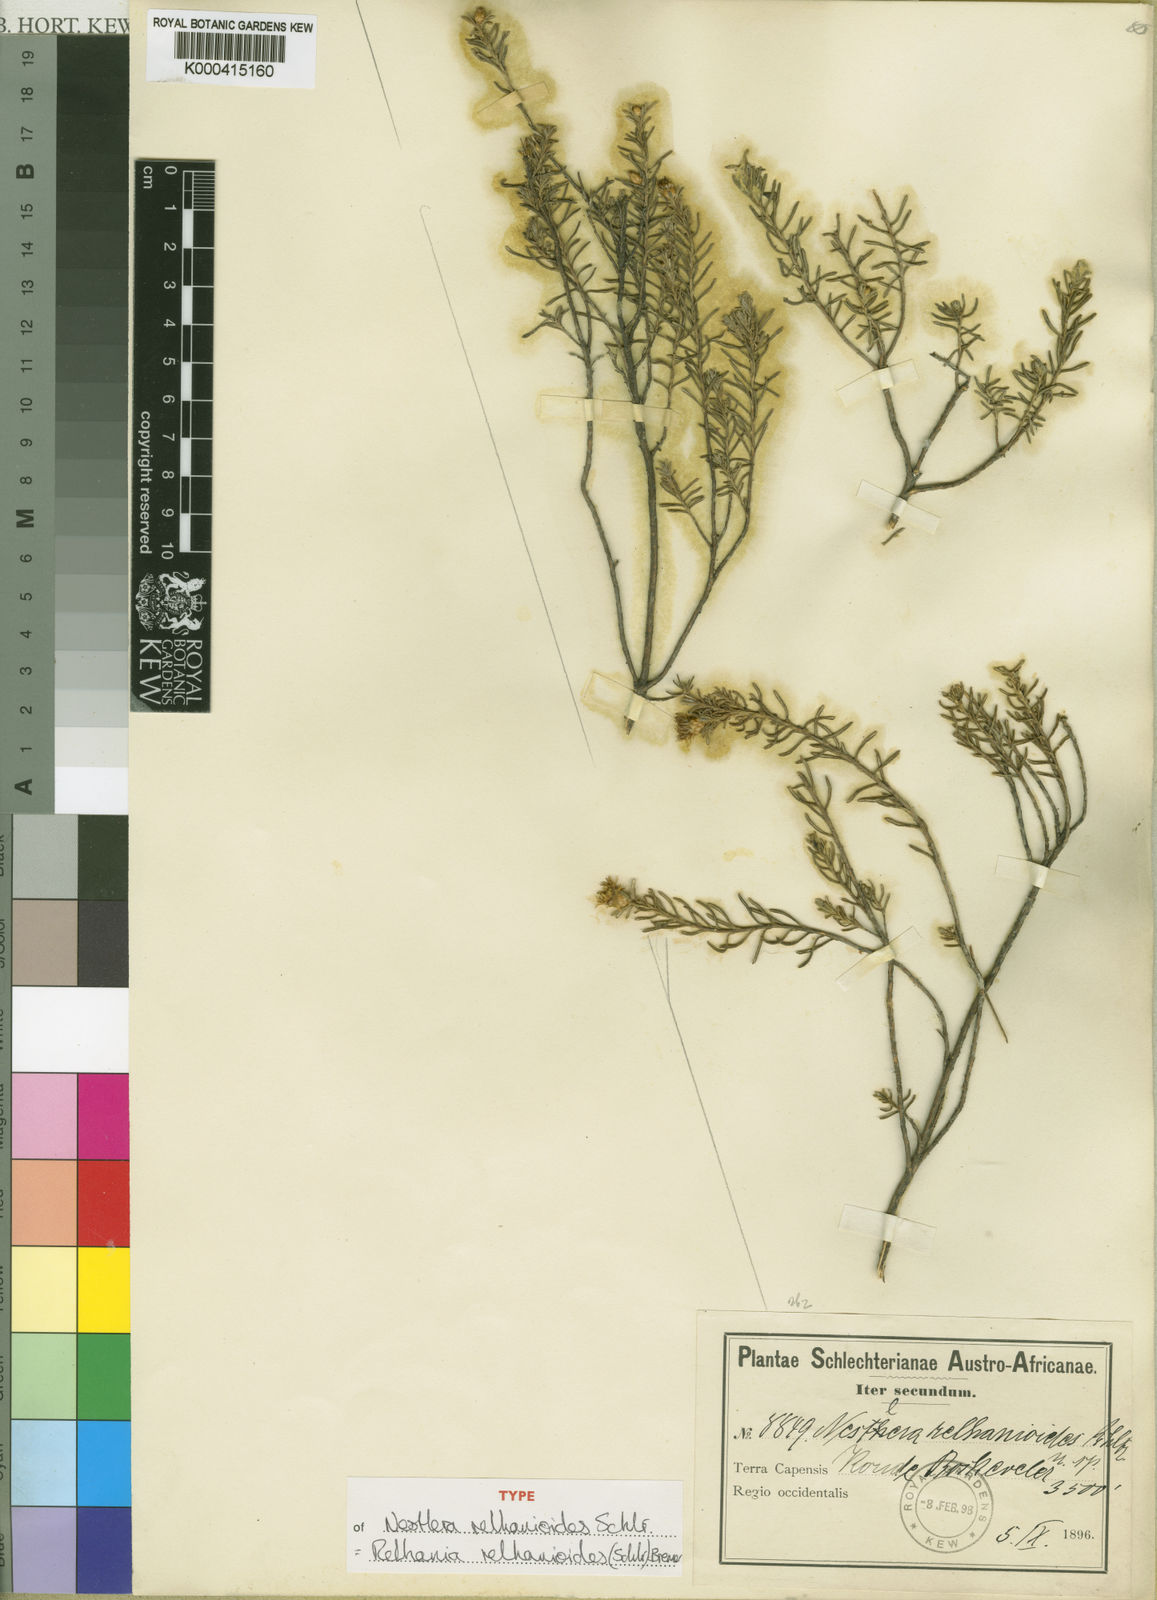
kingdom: Plantae
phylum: Tracheophyta
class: Magnoliopsida
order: Asterales
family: Asteraceae
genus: Oedera
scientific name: Oedera relhanioides
